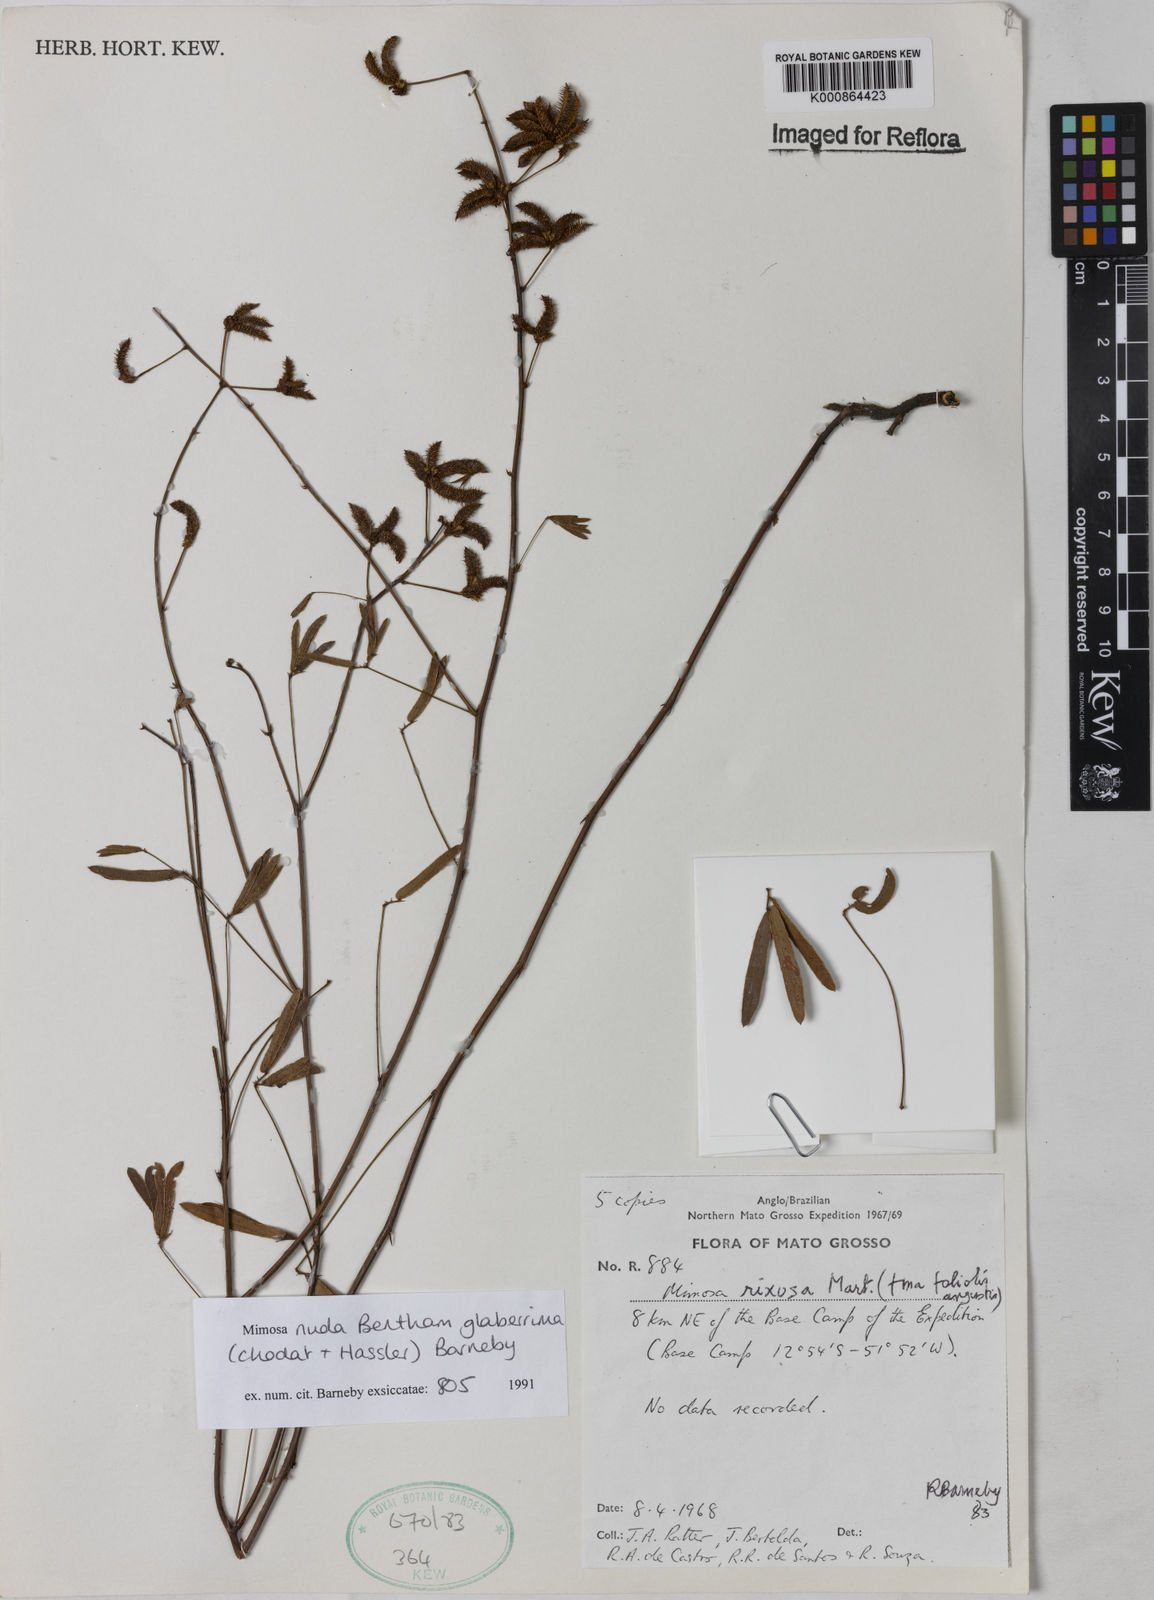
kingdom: Plantae
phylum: Tracheophyta
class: Magnoliopsida
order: Fabales
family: Fabaceae
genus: Mimosa
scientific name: Mimosa debilis
